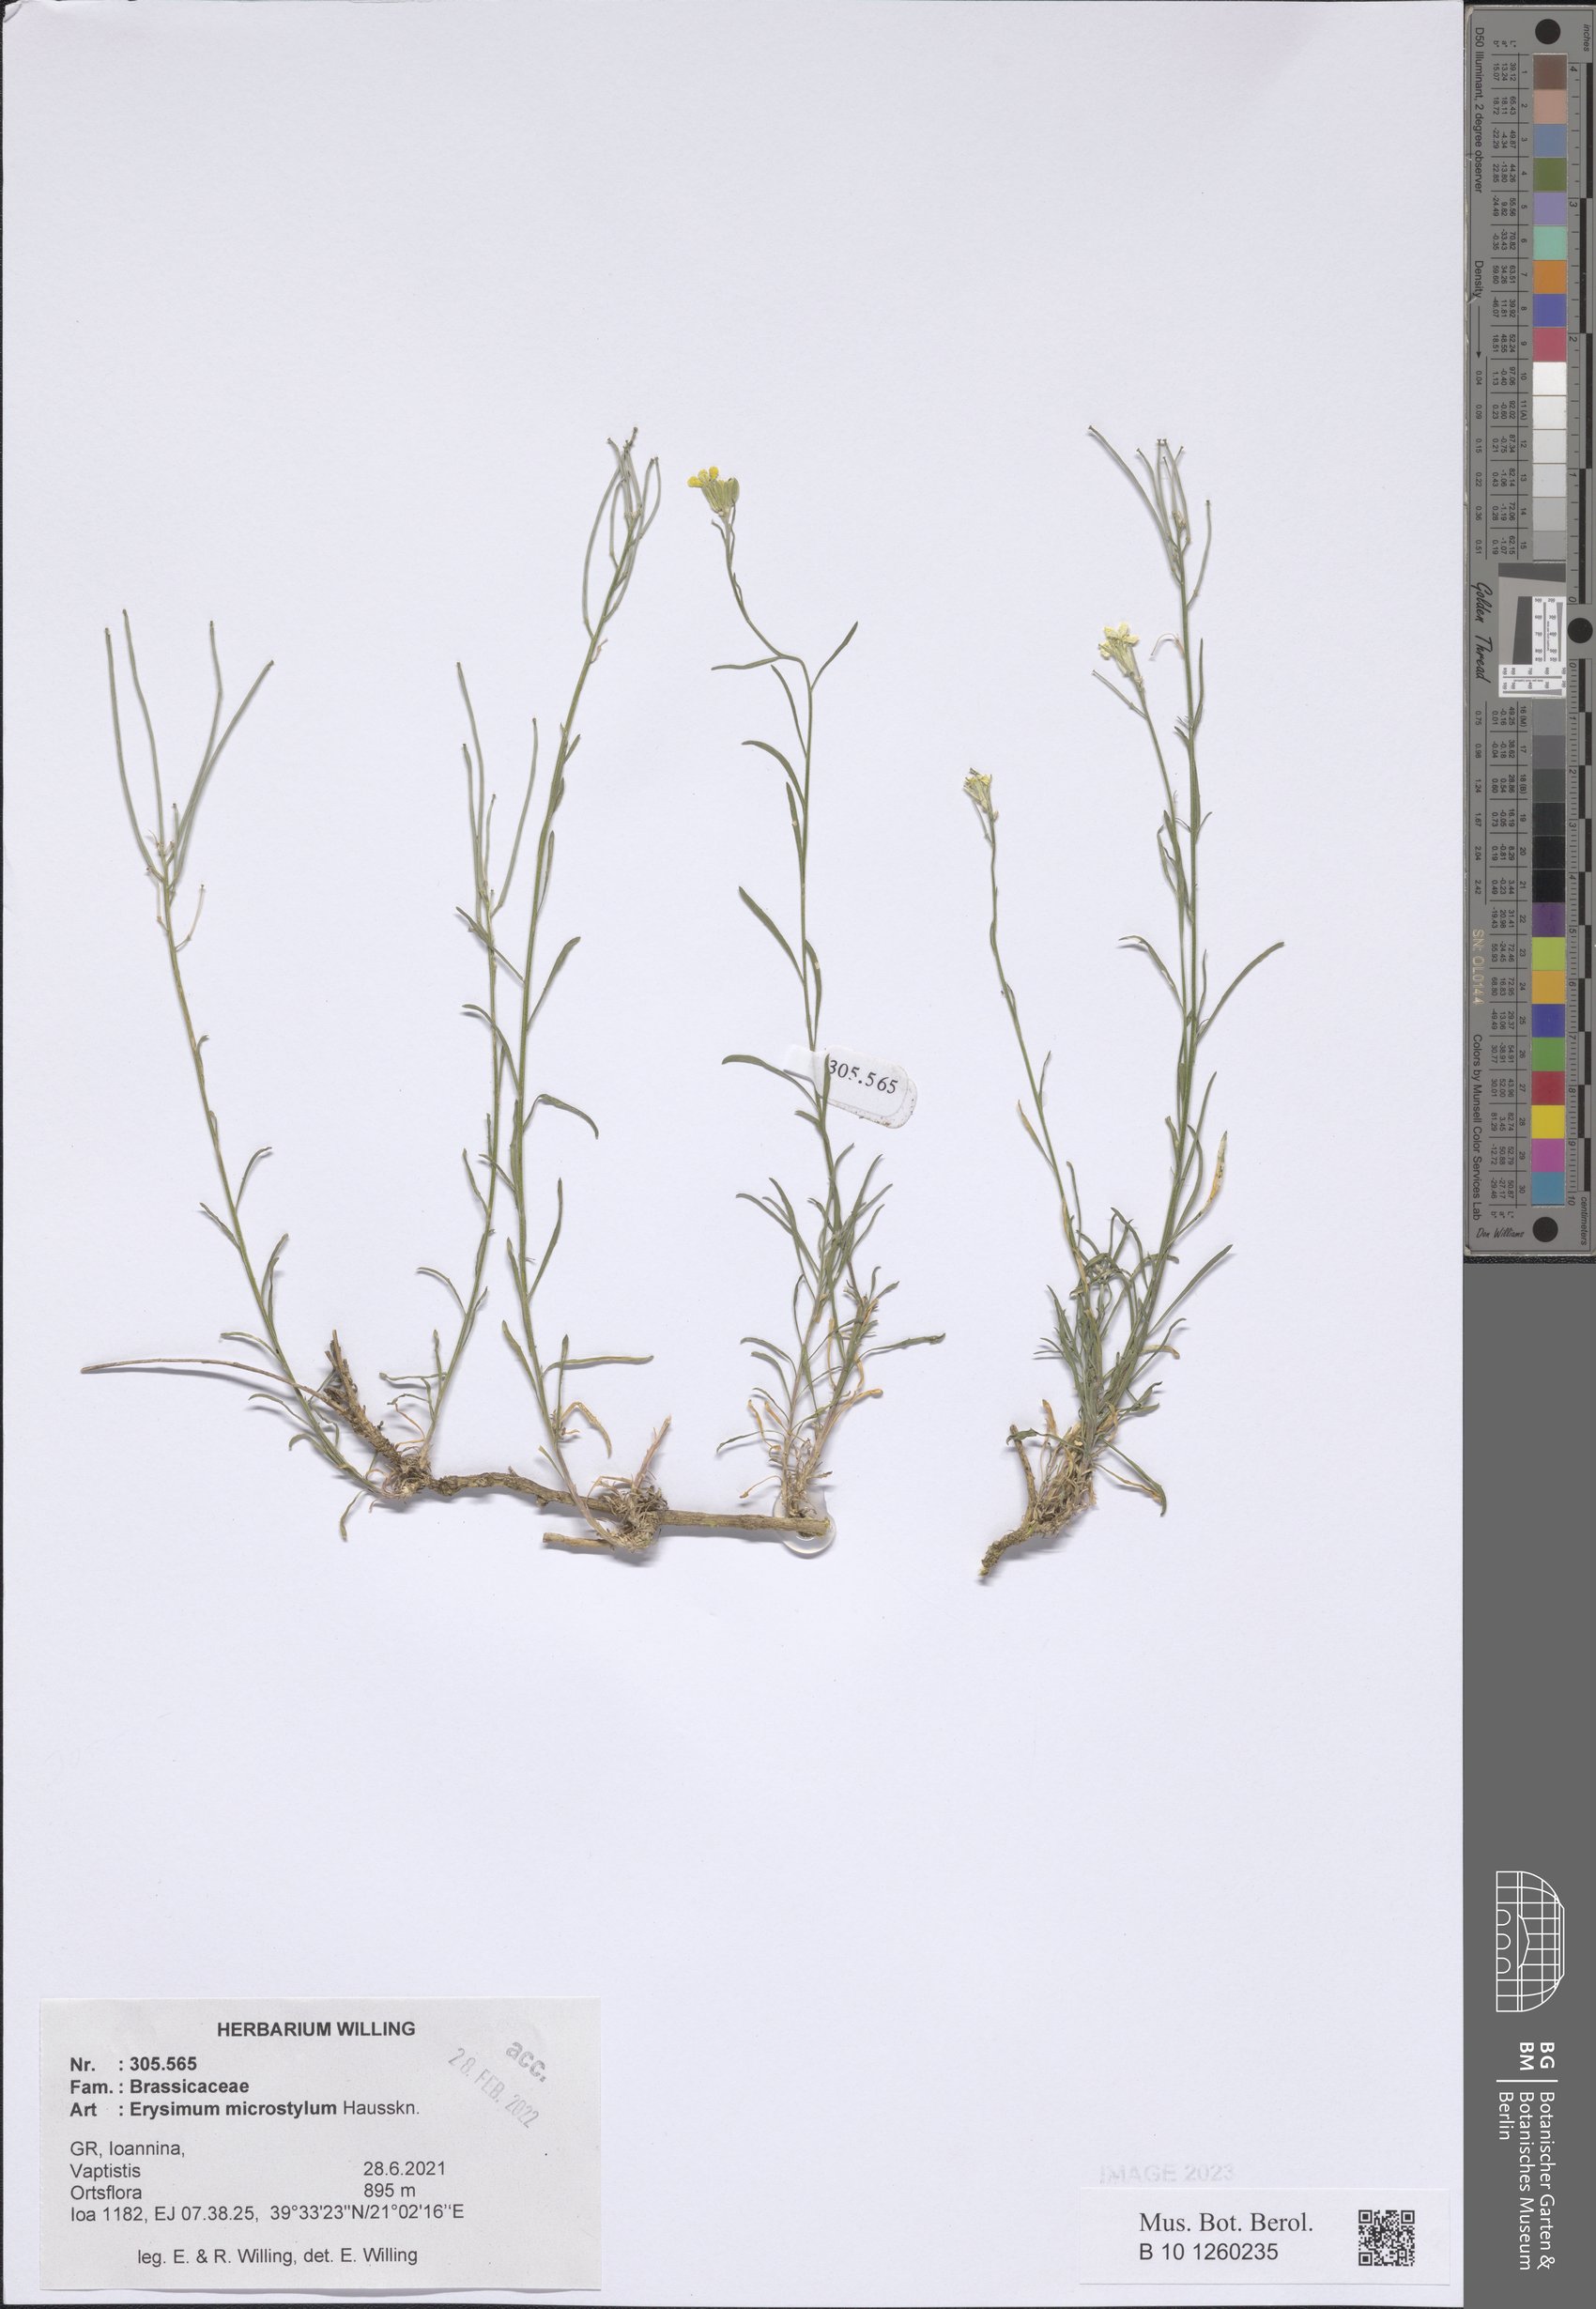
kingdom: Plantae
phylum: Tracheophyta
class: Magnoliopsida
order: Brassicales
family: Brassicaceae
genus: Erysimum
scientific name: Erysimum pusillum
